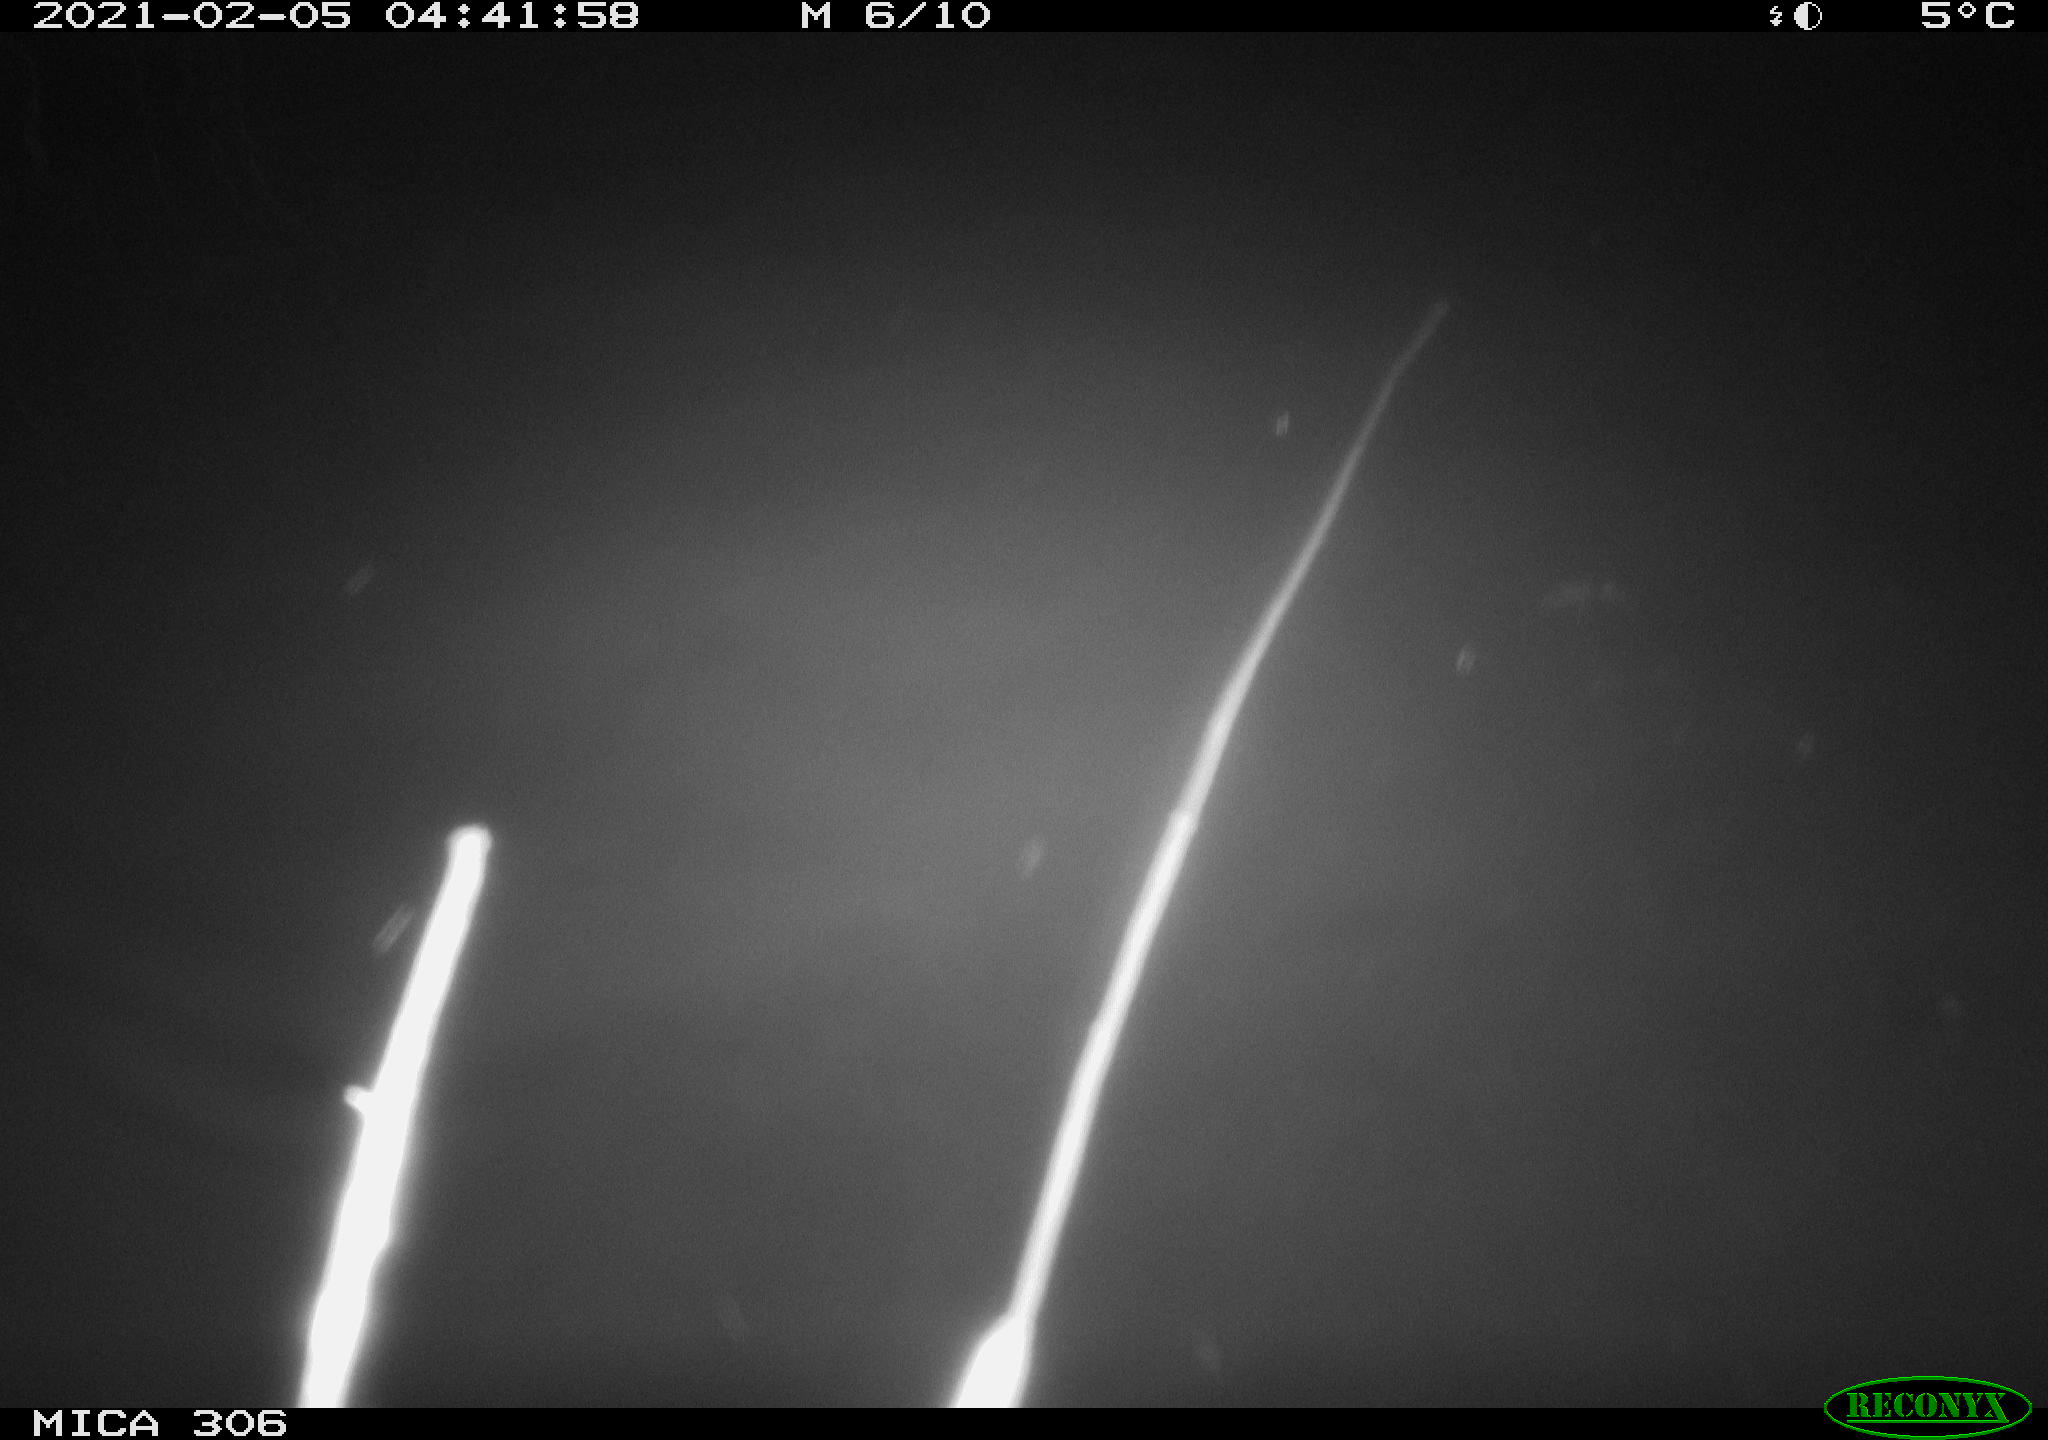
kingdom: Animalia
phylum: Chordata
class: Mammalia
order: Rodentia
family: Cricetidae
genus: Ondatra
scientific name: Ondatra zibethicus
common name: Muskrat
